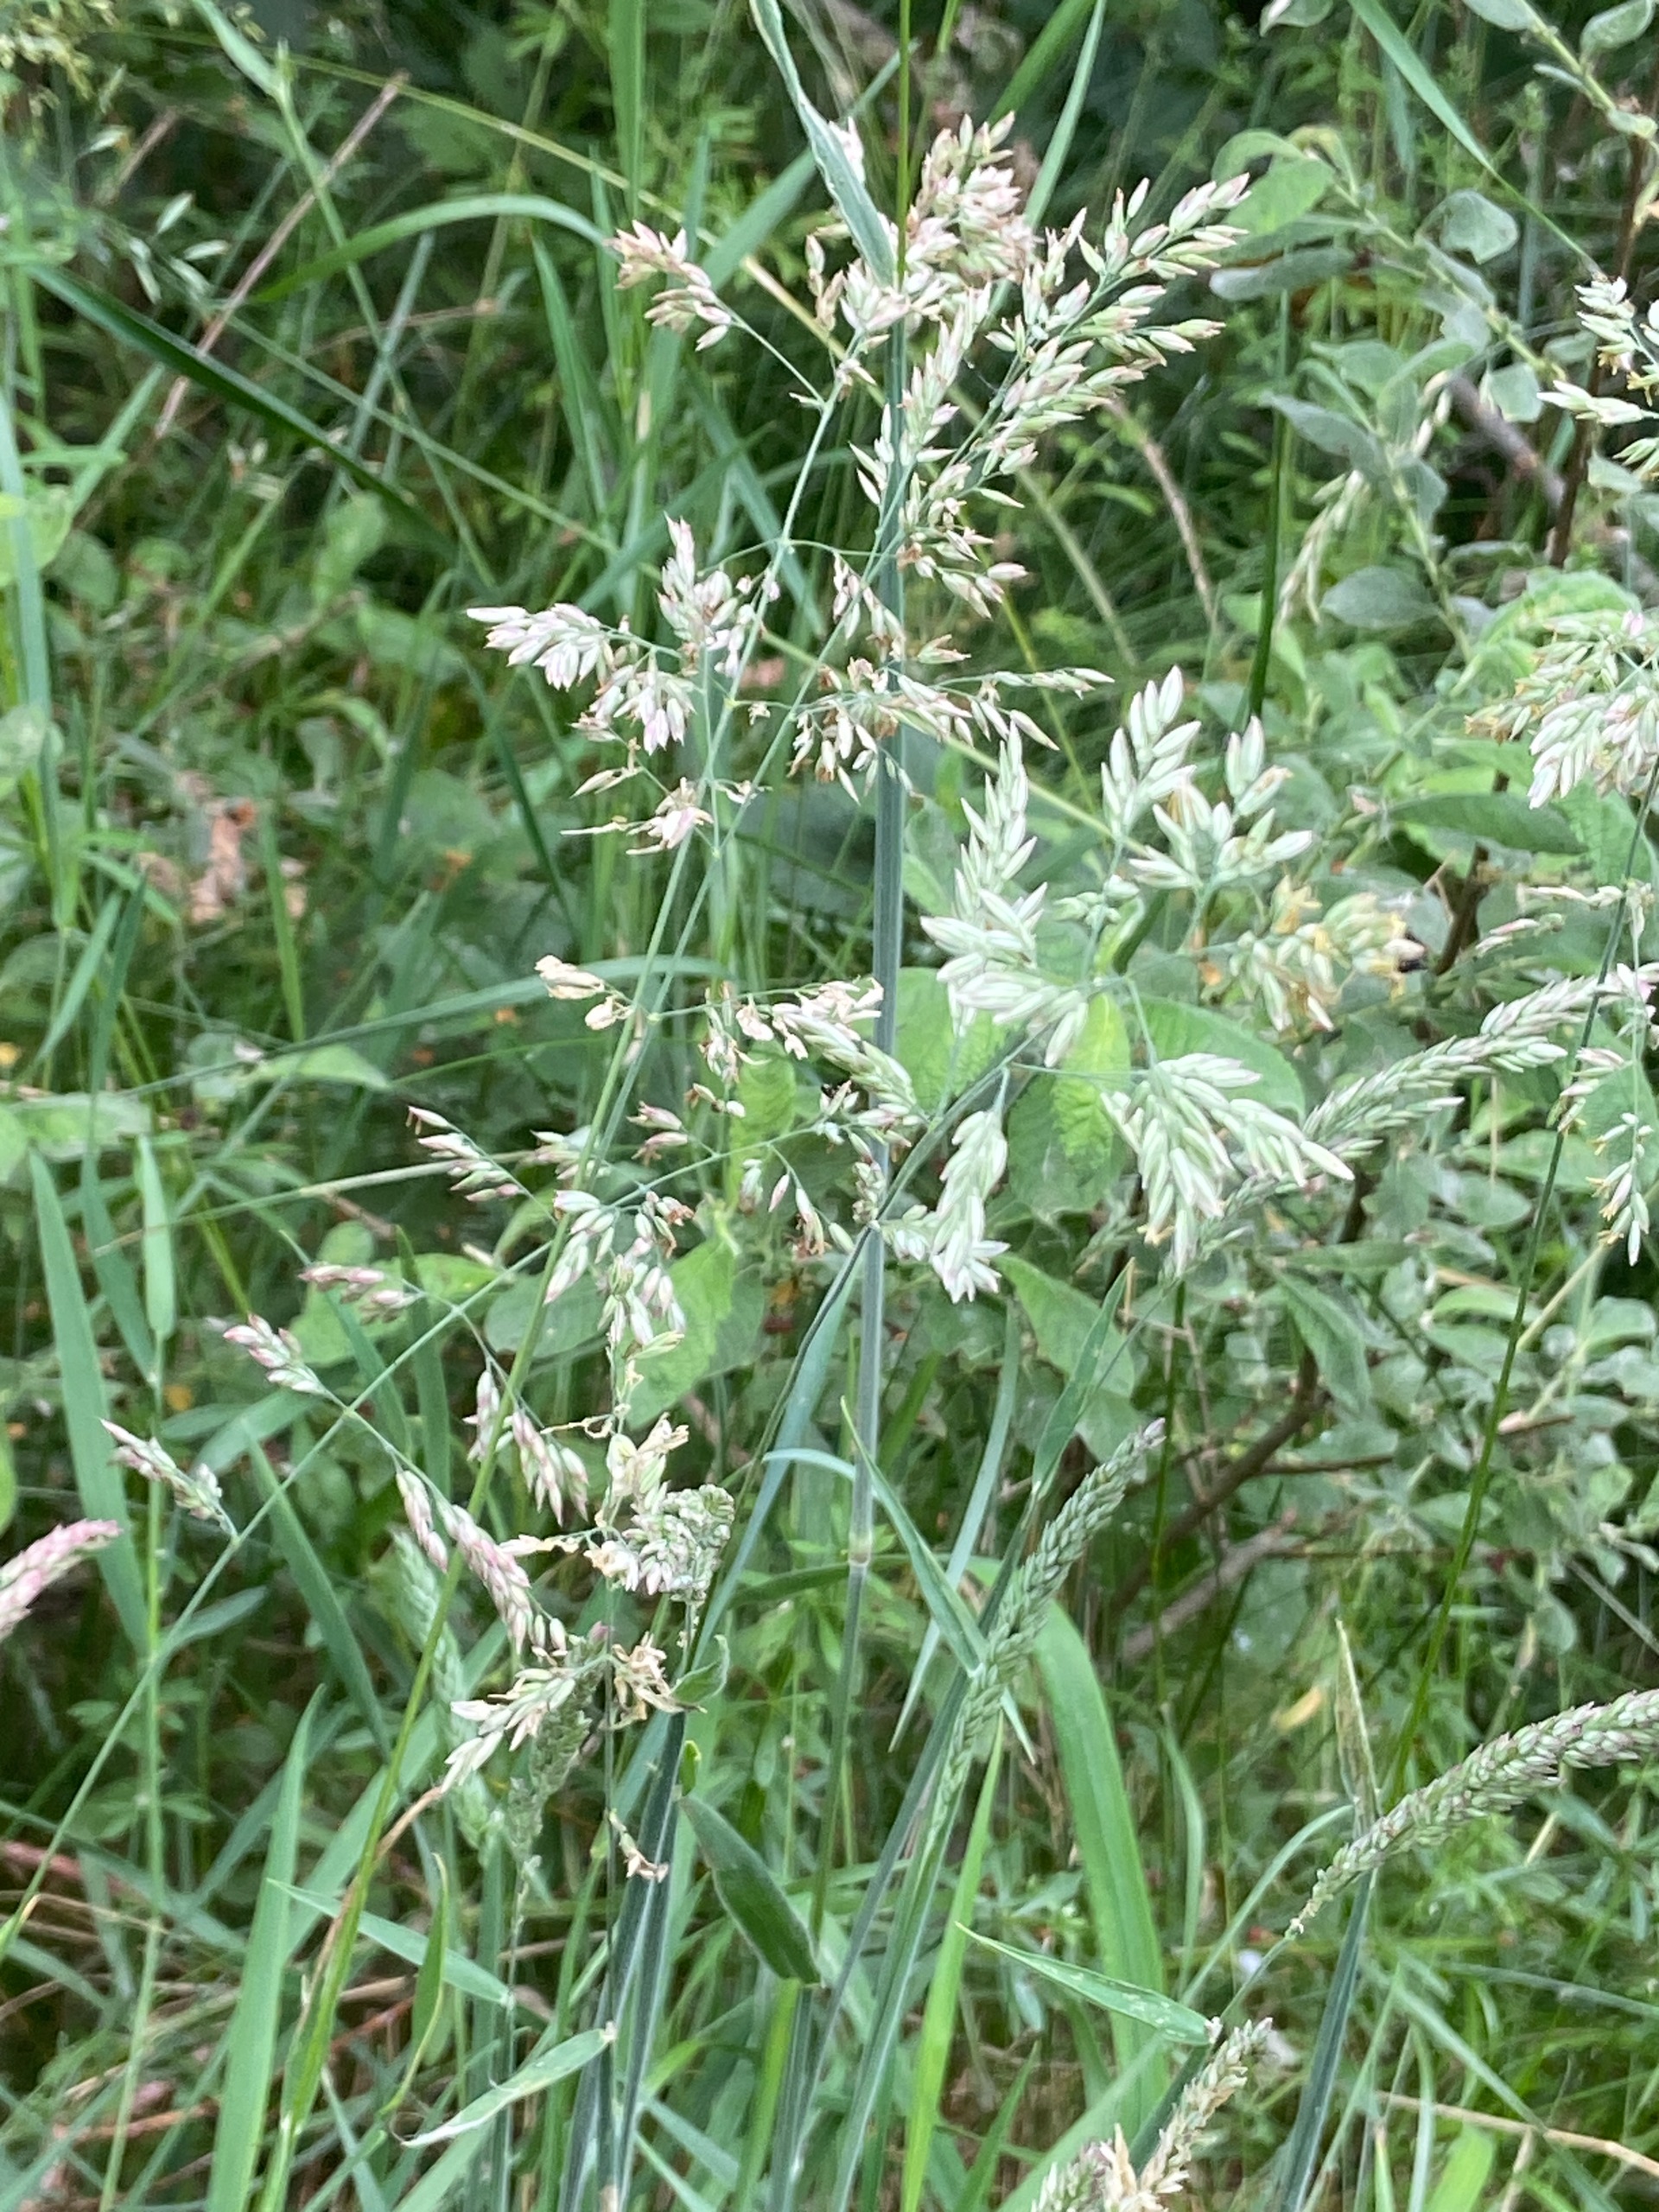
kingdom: Plantae
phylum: Tracheophyta
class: Liliopsida
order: Poales
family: Poaceae
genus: Holcus
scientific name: Holcus lanatus
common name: Fløjlsgræs
